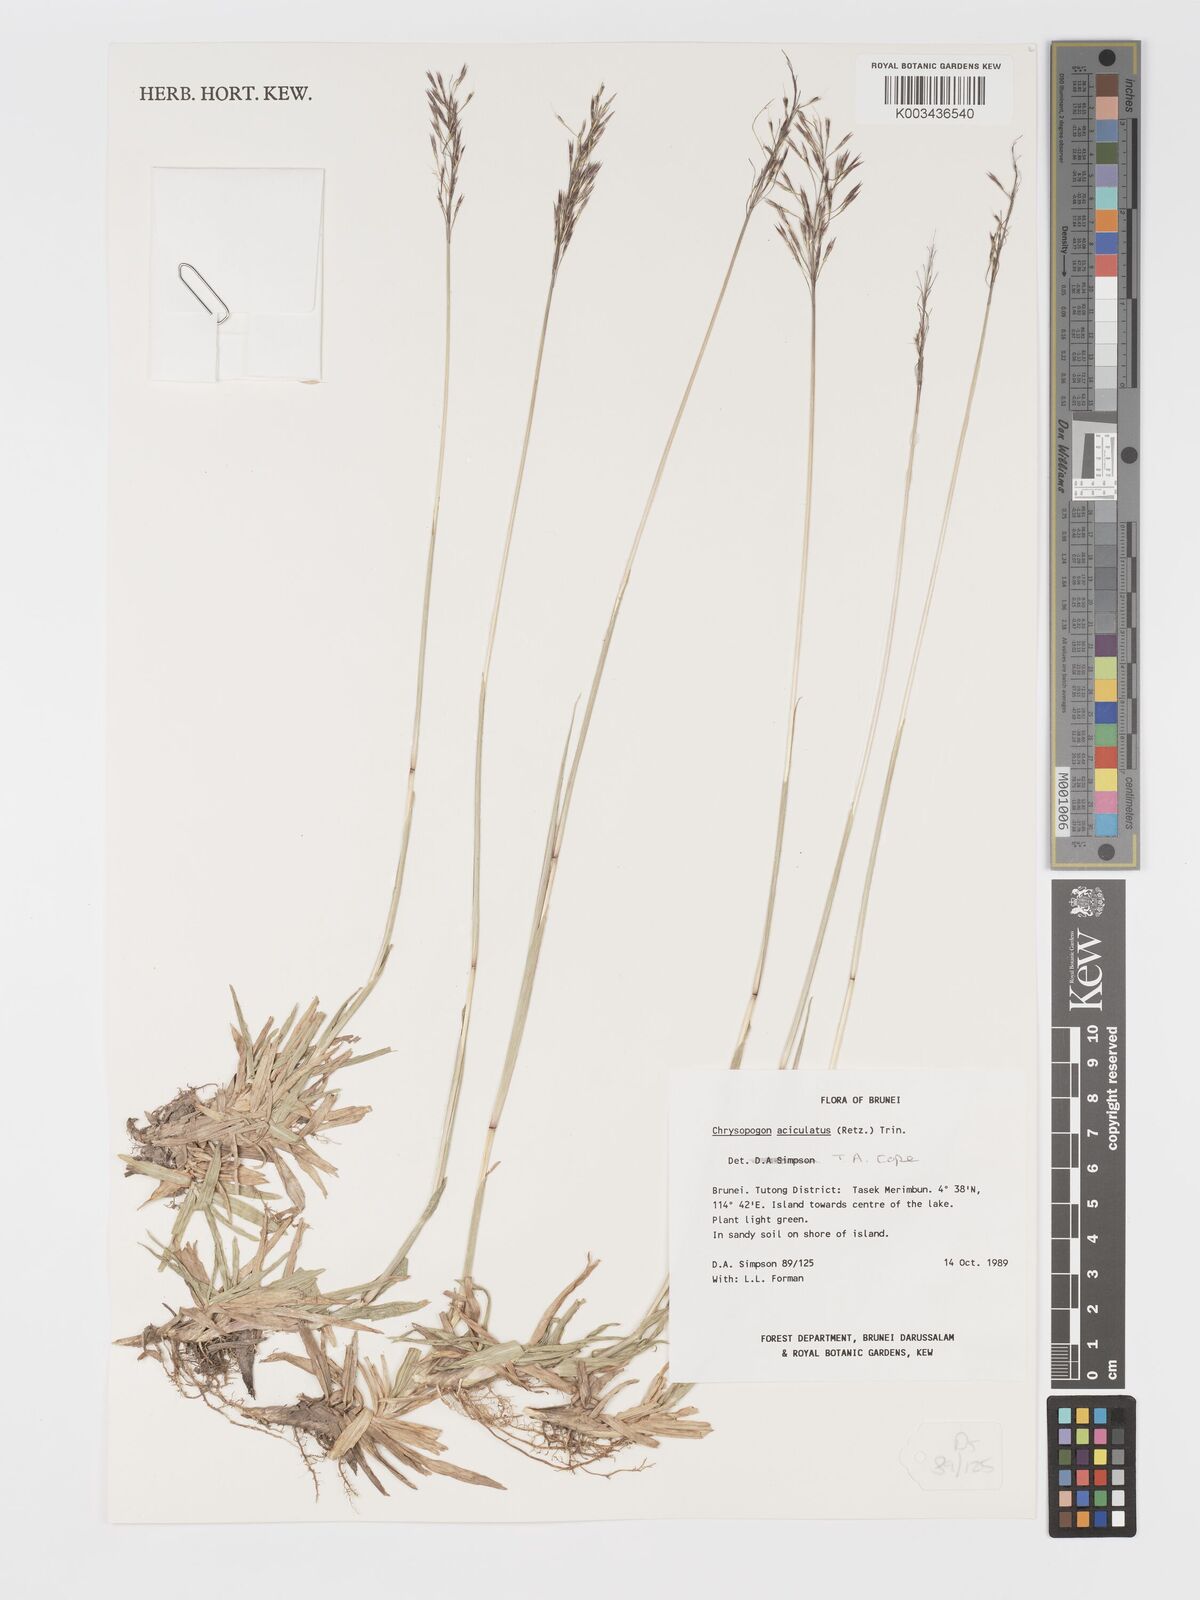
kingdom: Plantae
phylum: Tracheophyta
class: Liliopsida
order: Poales
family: Poaceae
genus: Chrysopogon
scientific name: Chrysopogon aciculatus
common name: Pilipiliula
